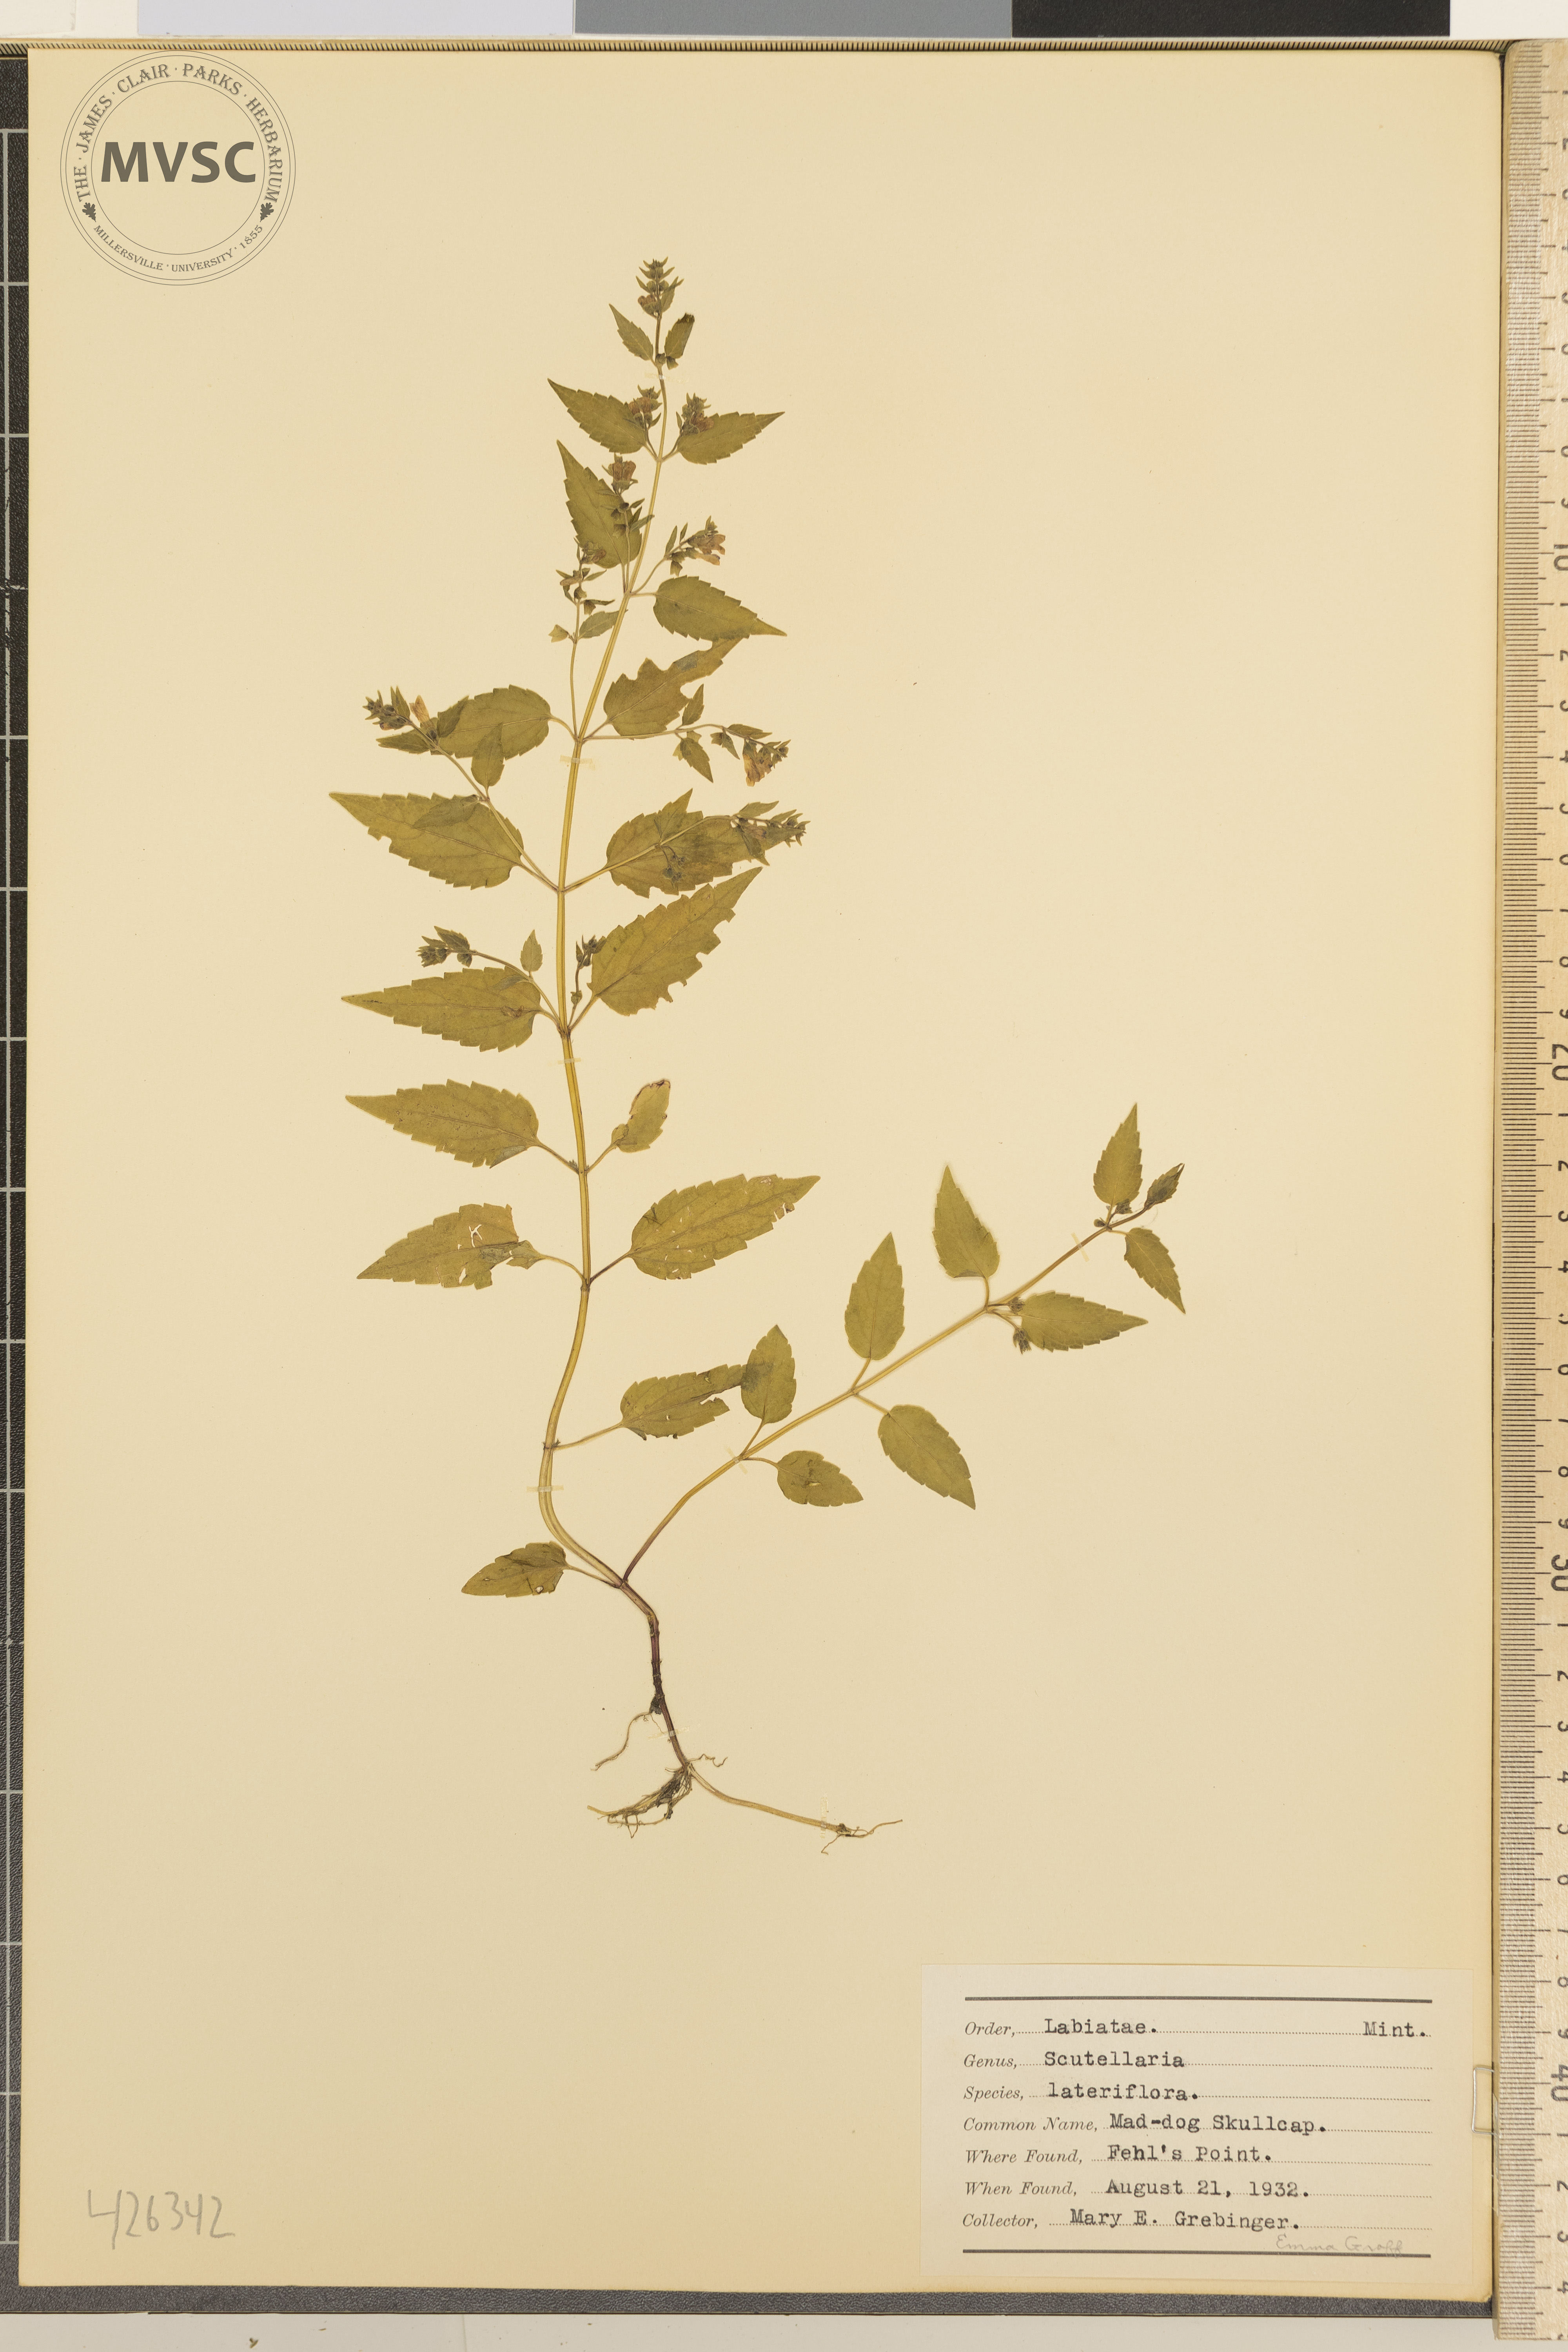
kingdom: Plantae
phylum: Tracheophyta
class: Magnoliopsida
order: Lamiales
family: Lamiaceae
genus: Scutellaria
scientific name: Scutellaria lateriflora
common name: Mad-dog Skullcap
